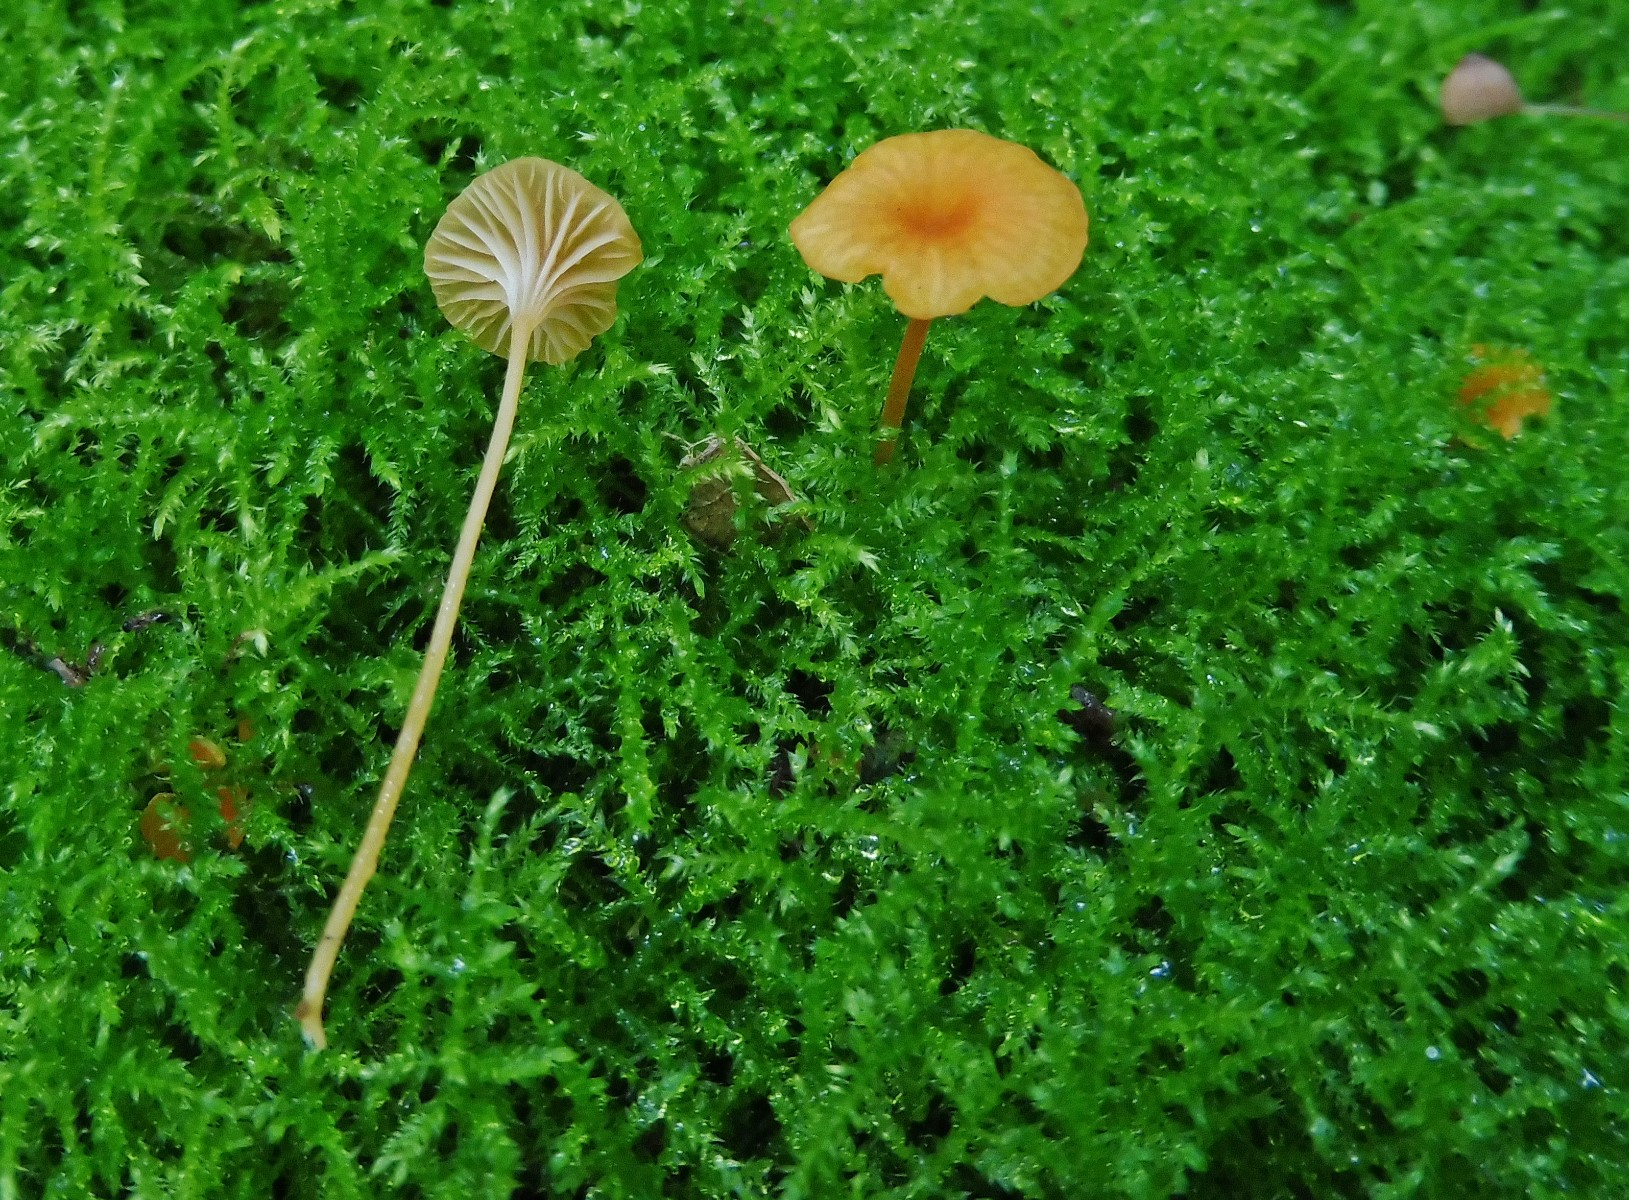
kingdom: Fungi
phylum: Basidiomycota
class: Agaricomycetes
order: Hymenochaetales
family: Rickenellaceae
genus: Rickenella
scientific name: Rickenella fibula
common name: orange mosnavlehat
